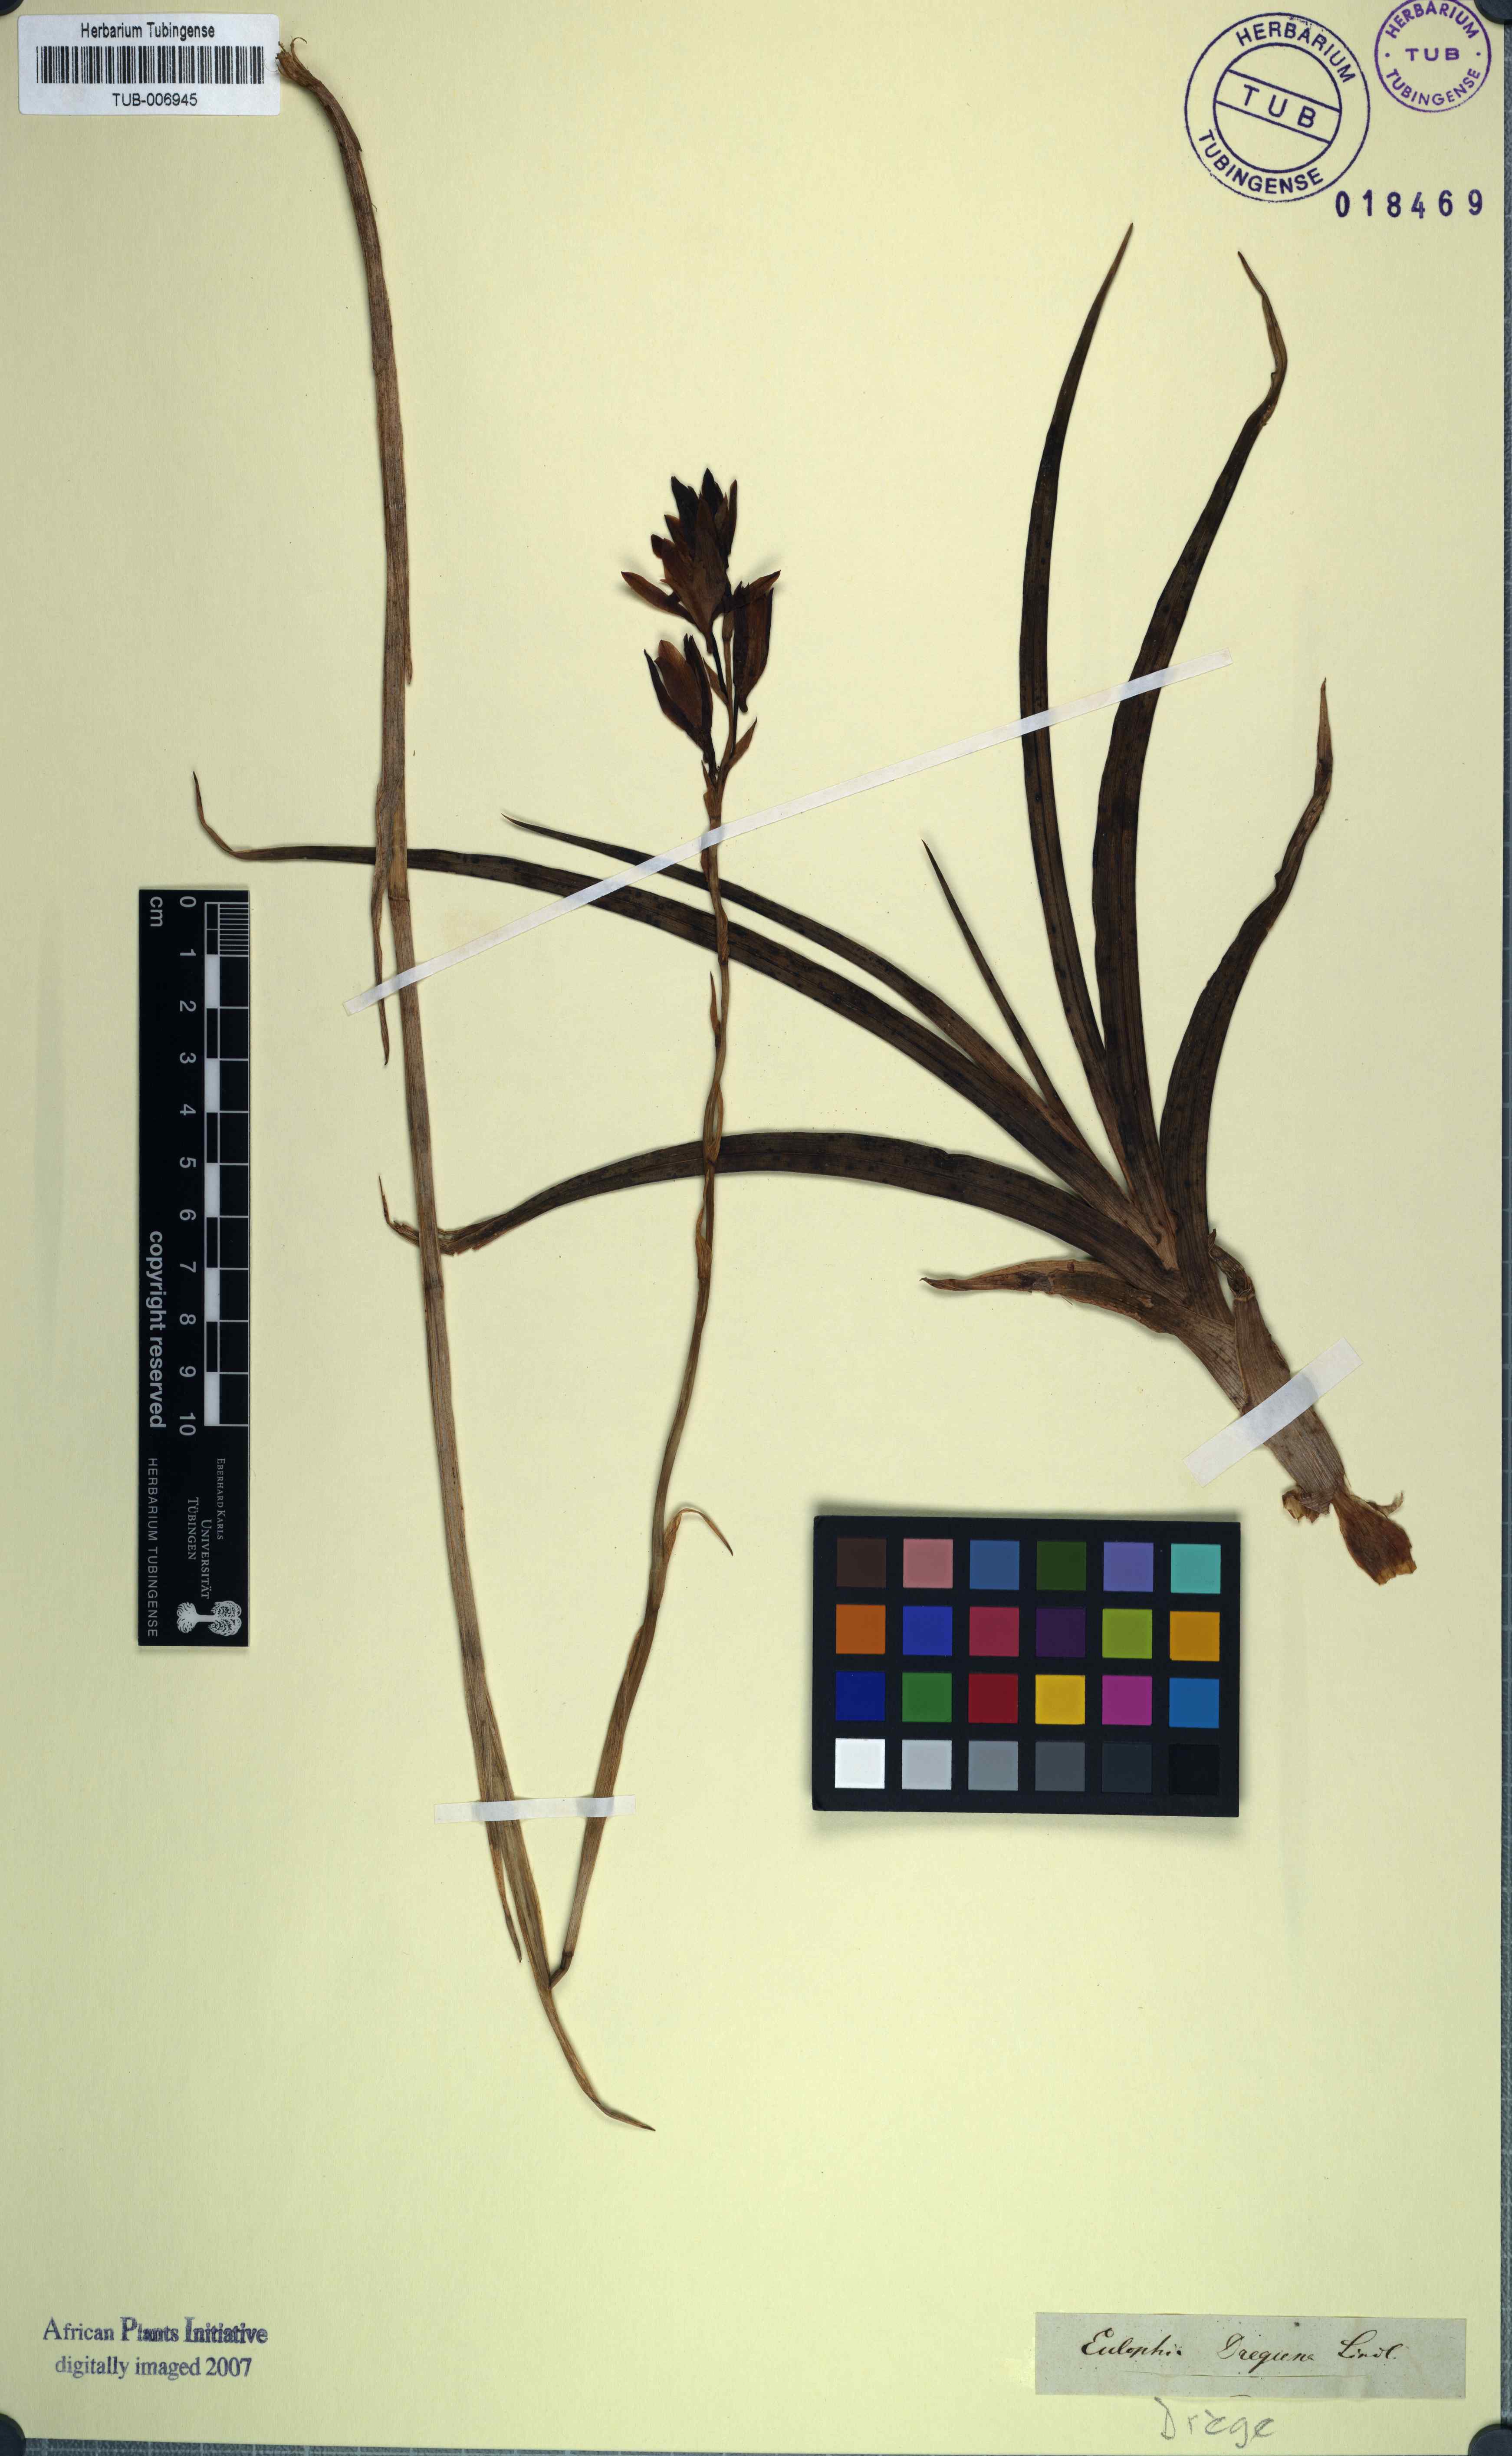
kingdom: Plantae
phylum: Tracheophyta
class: Liliopsida
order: Asparagales
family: Orchidaceae
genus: Eulophia
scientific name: Eulophia ovalis
